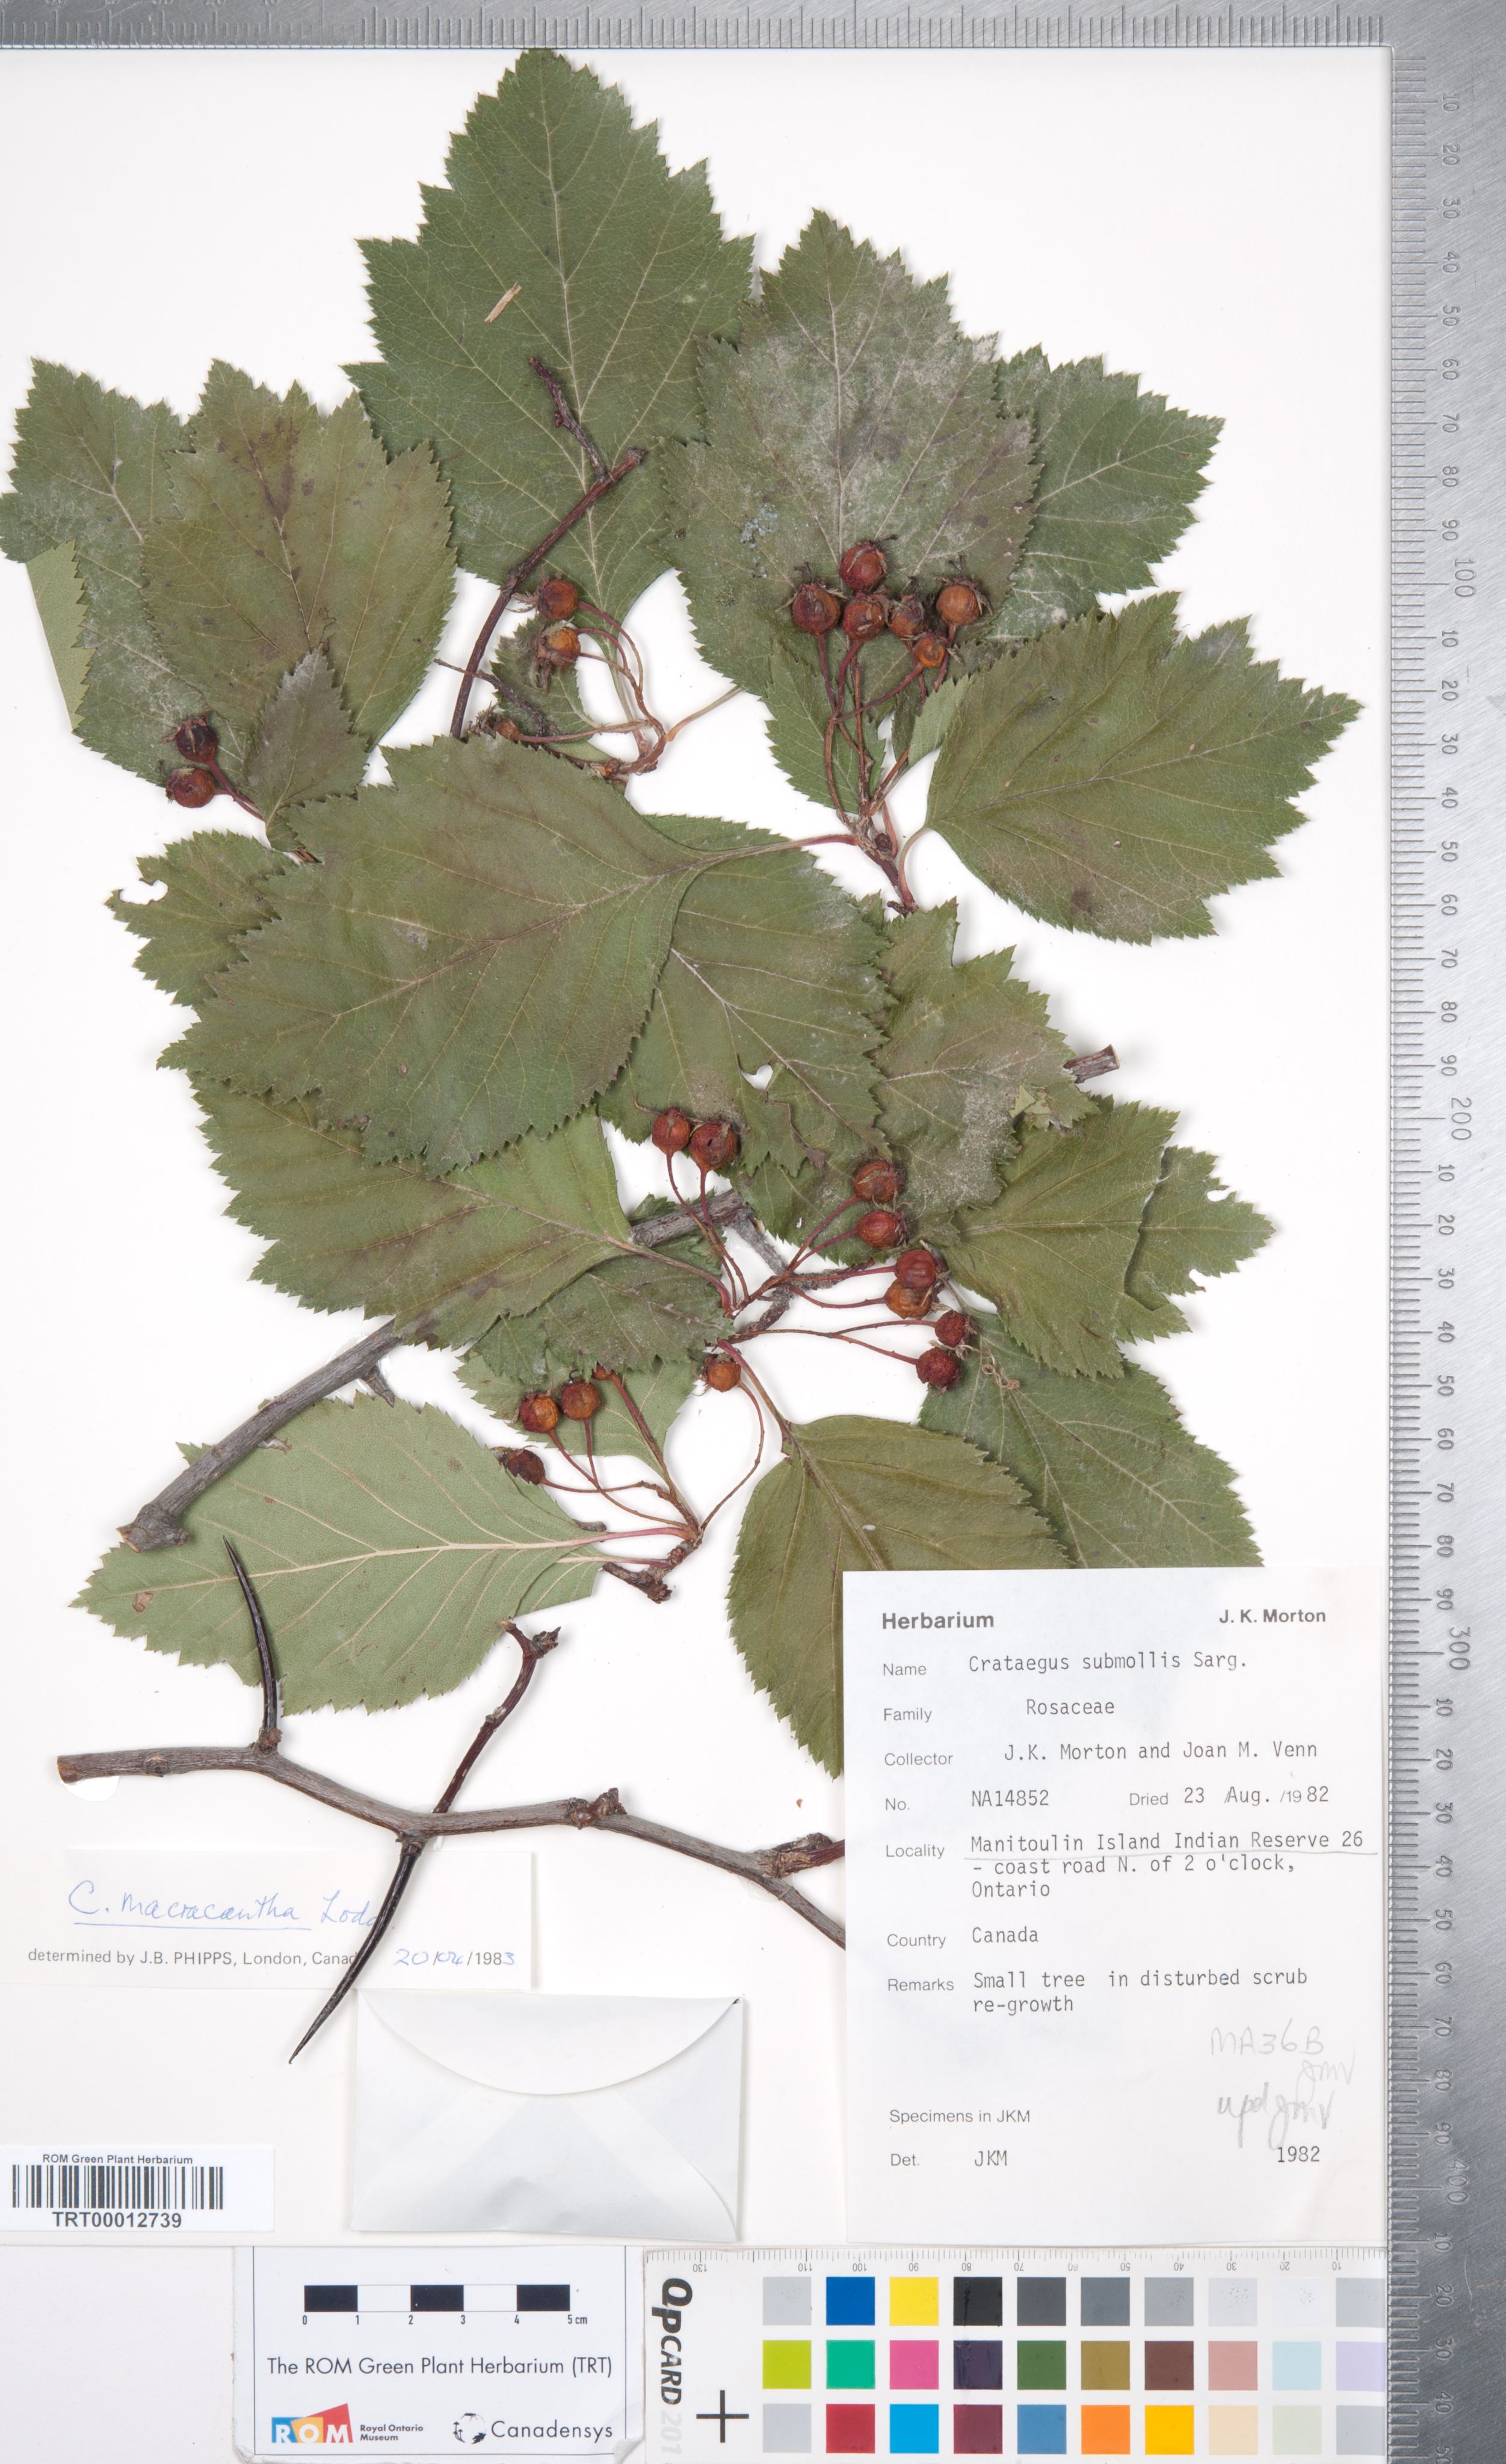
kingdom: Plantae
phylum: Tracheophyta
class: Magnoliopsida
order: Rosales
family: Rosaceae
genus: Crataegus
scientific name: Crataegus macracantha
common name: Large-thorn hawthorn
